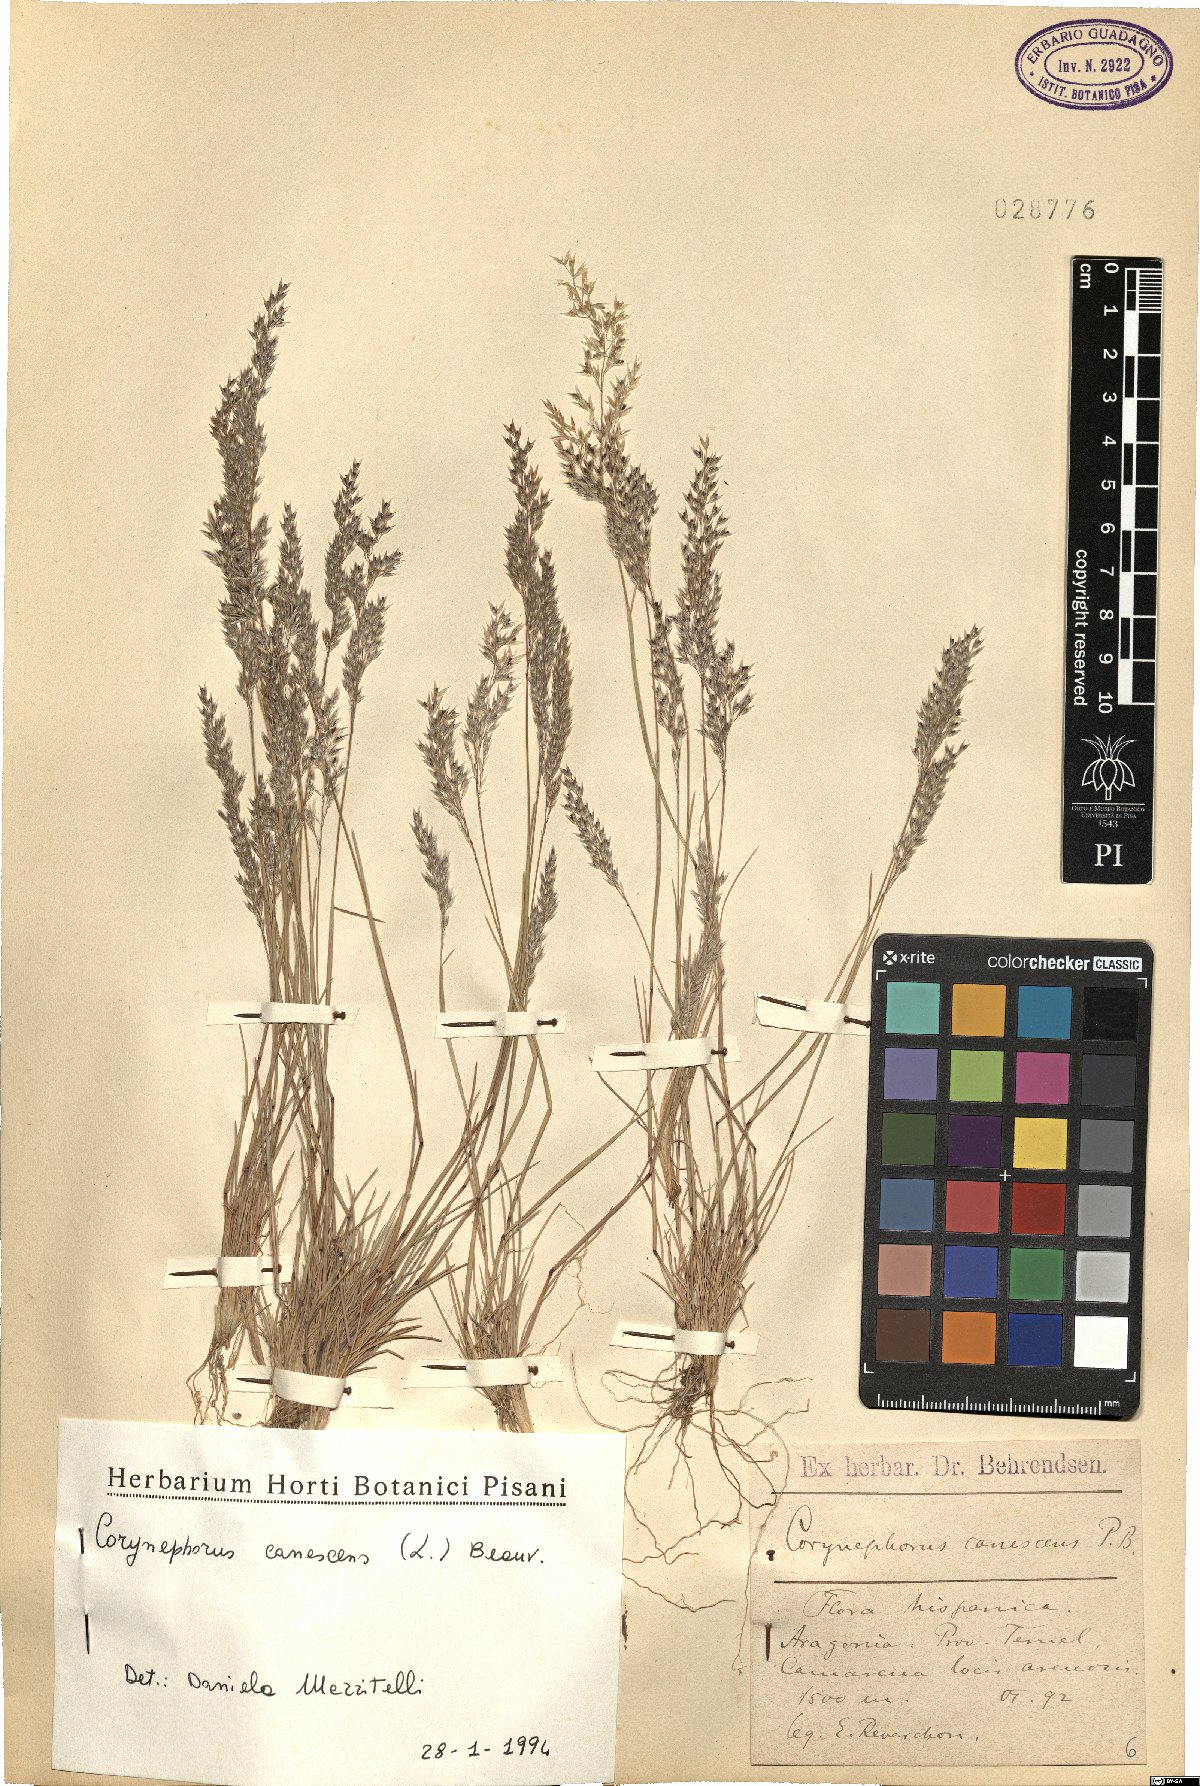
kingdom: Plantae
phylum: Tracheophyta
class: Liliopsida
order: Poales
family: Poaceae
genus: Corynephorus
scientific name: Corynephorus canescens
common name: Grey hair-grass
